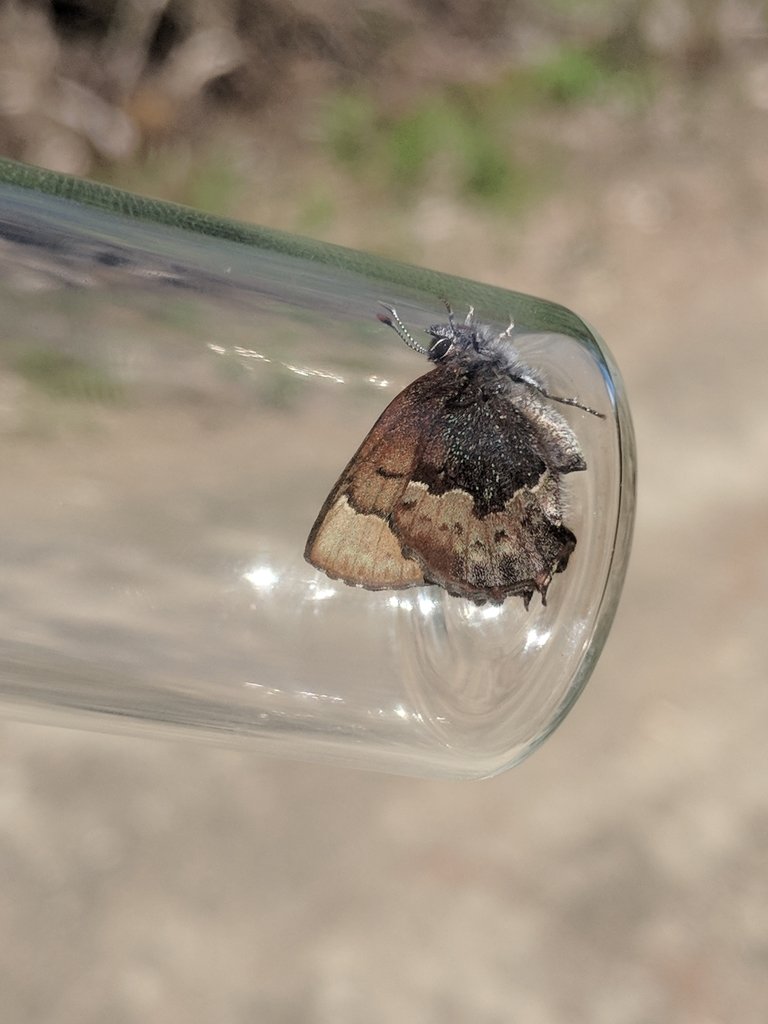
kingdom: Animalia
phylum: Arthropoda
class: Insecta
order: Lepidoptera
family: Lycaenidae
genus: Incisalia
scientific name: Incisalia henrici
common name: Henry's Elfin
